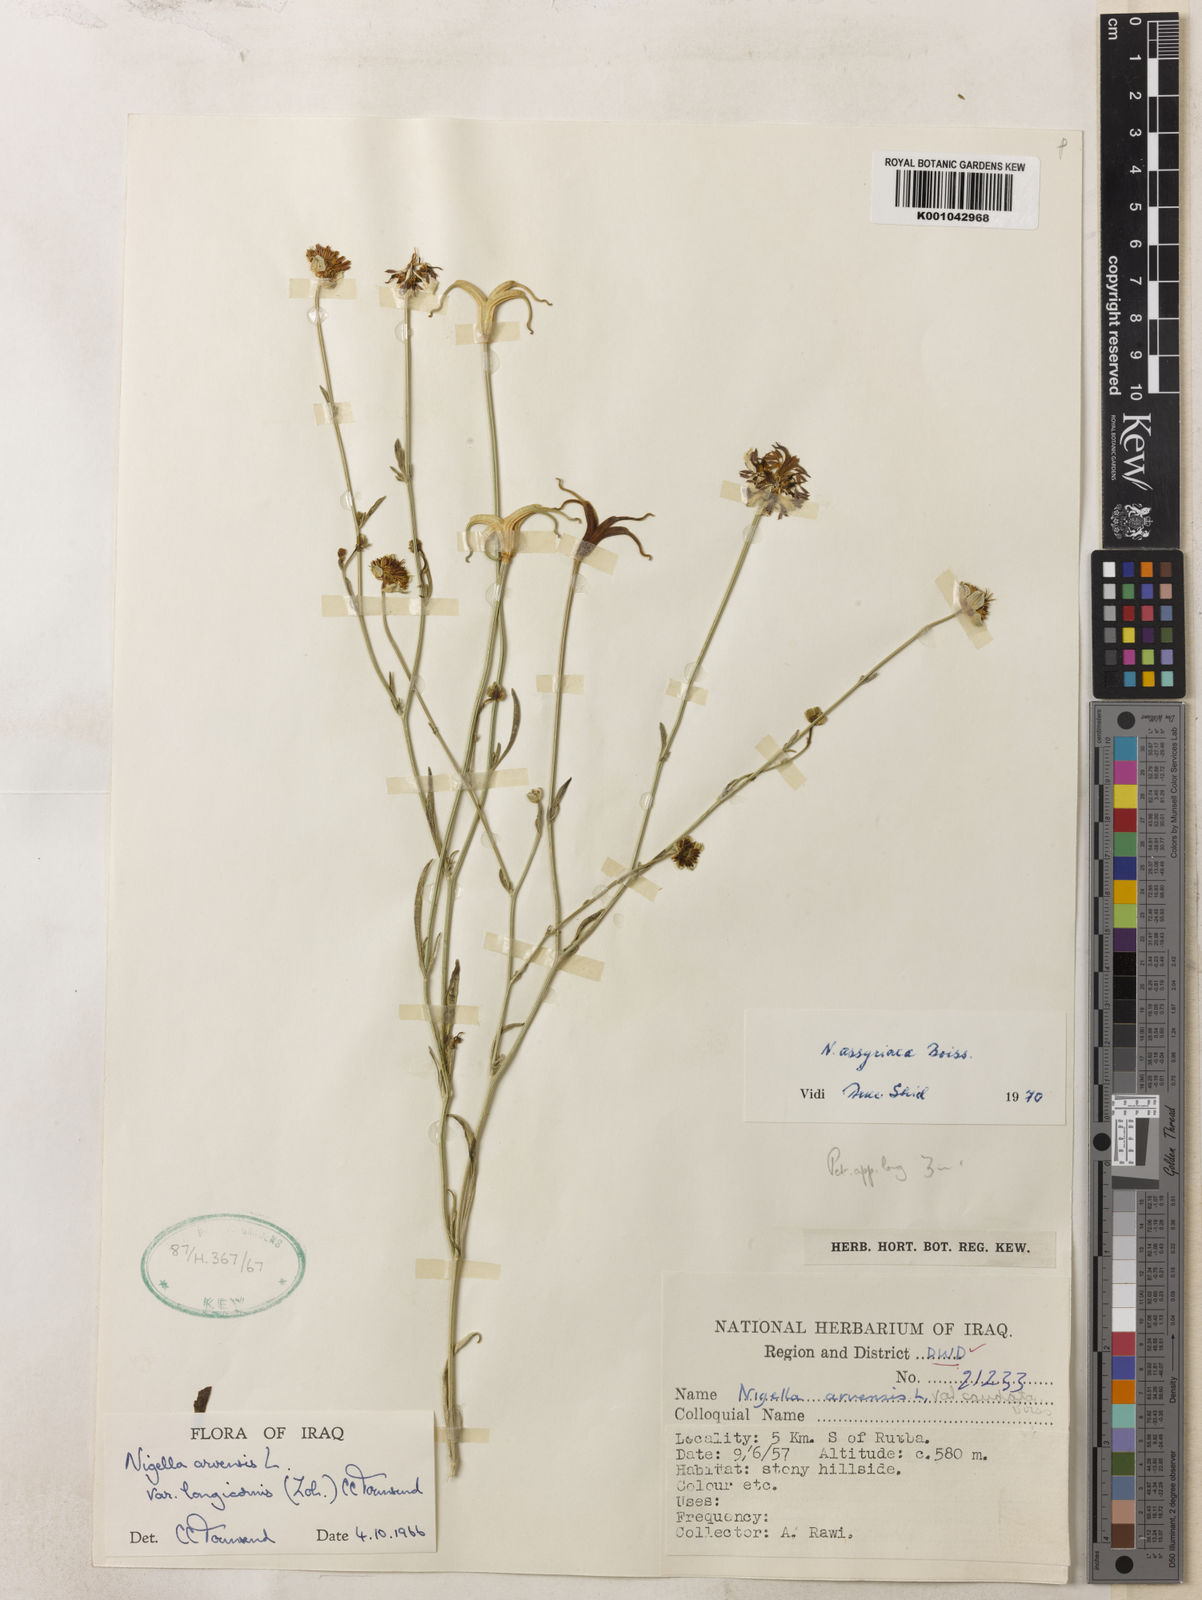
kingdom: Plantae
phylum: Tracheophyta
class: Magnoliopsida
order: Ranunculales
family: Ranunculaceae
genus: Nigella
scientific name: Nigella arvensis
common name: Wild fennel-flower
